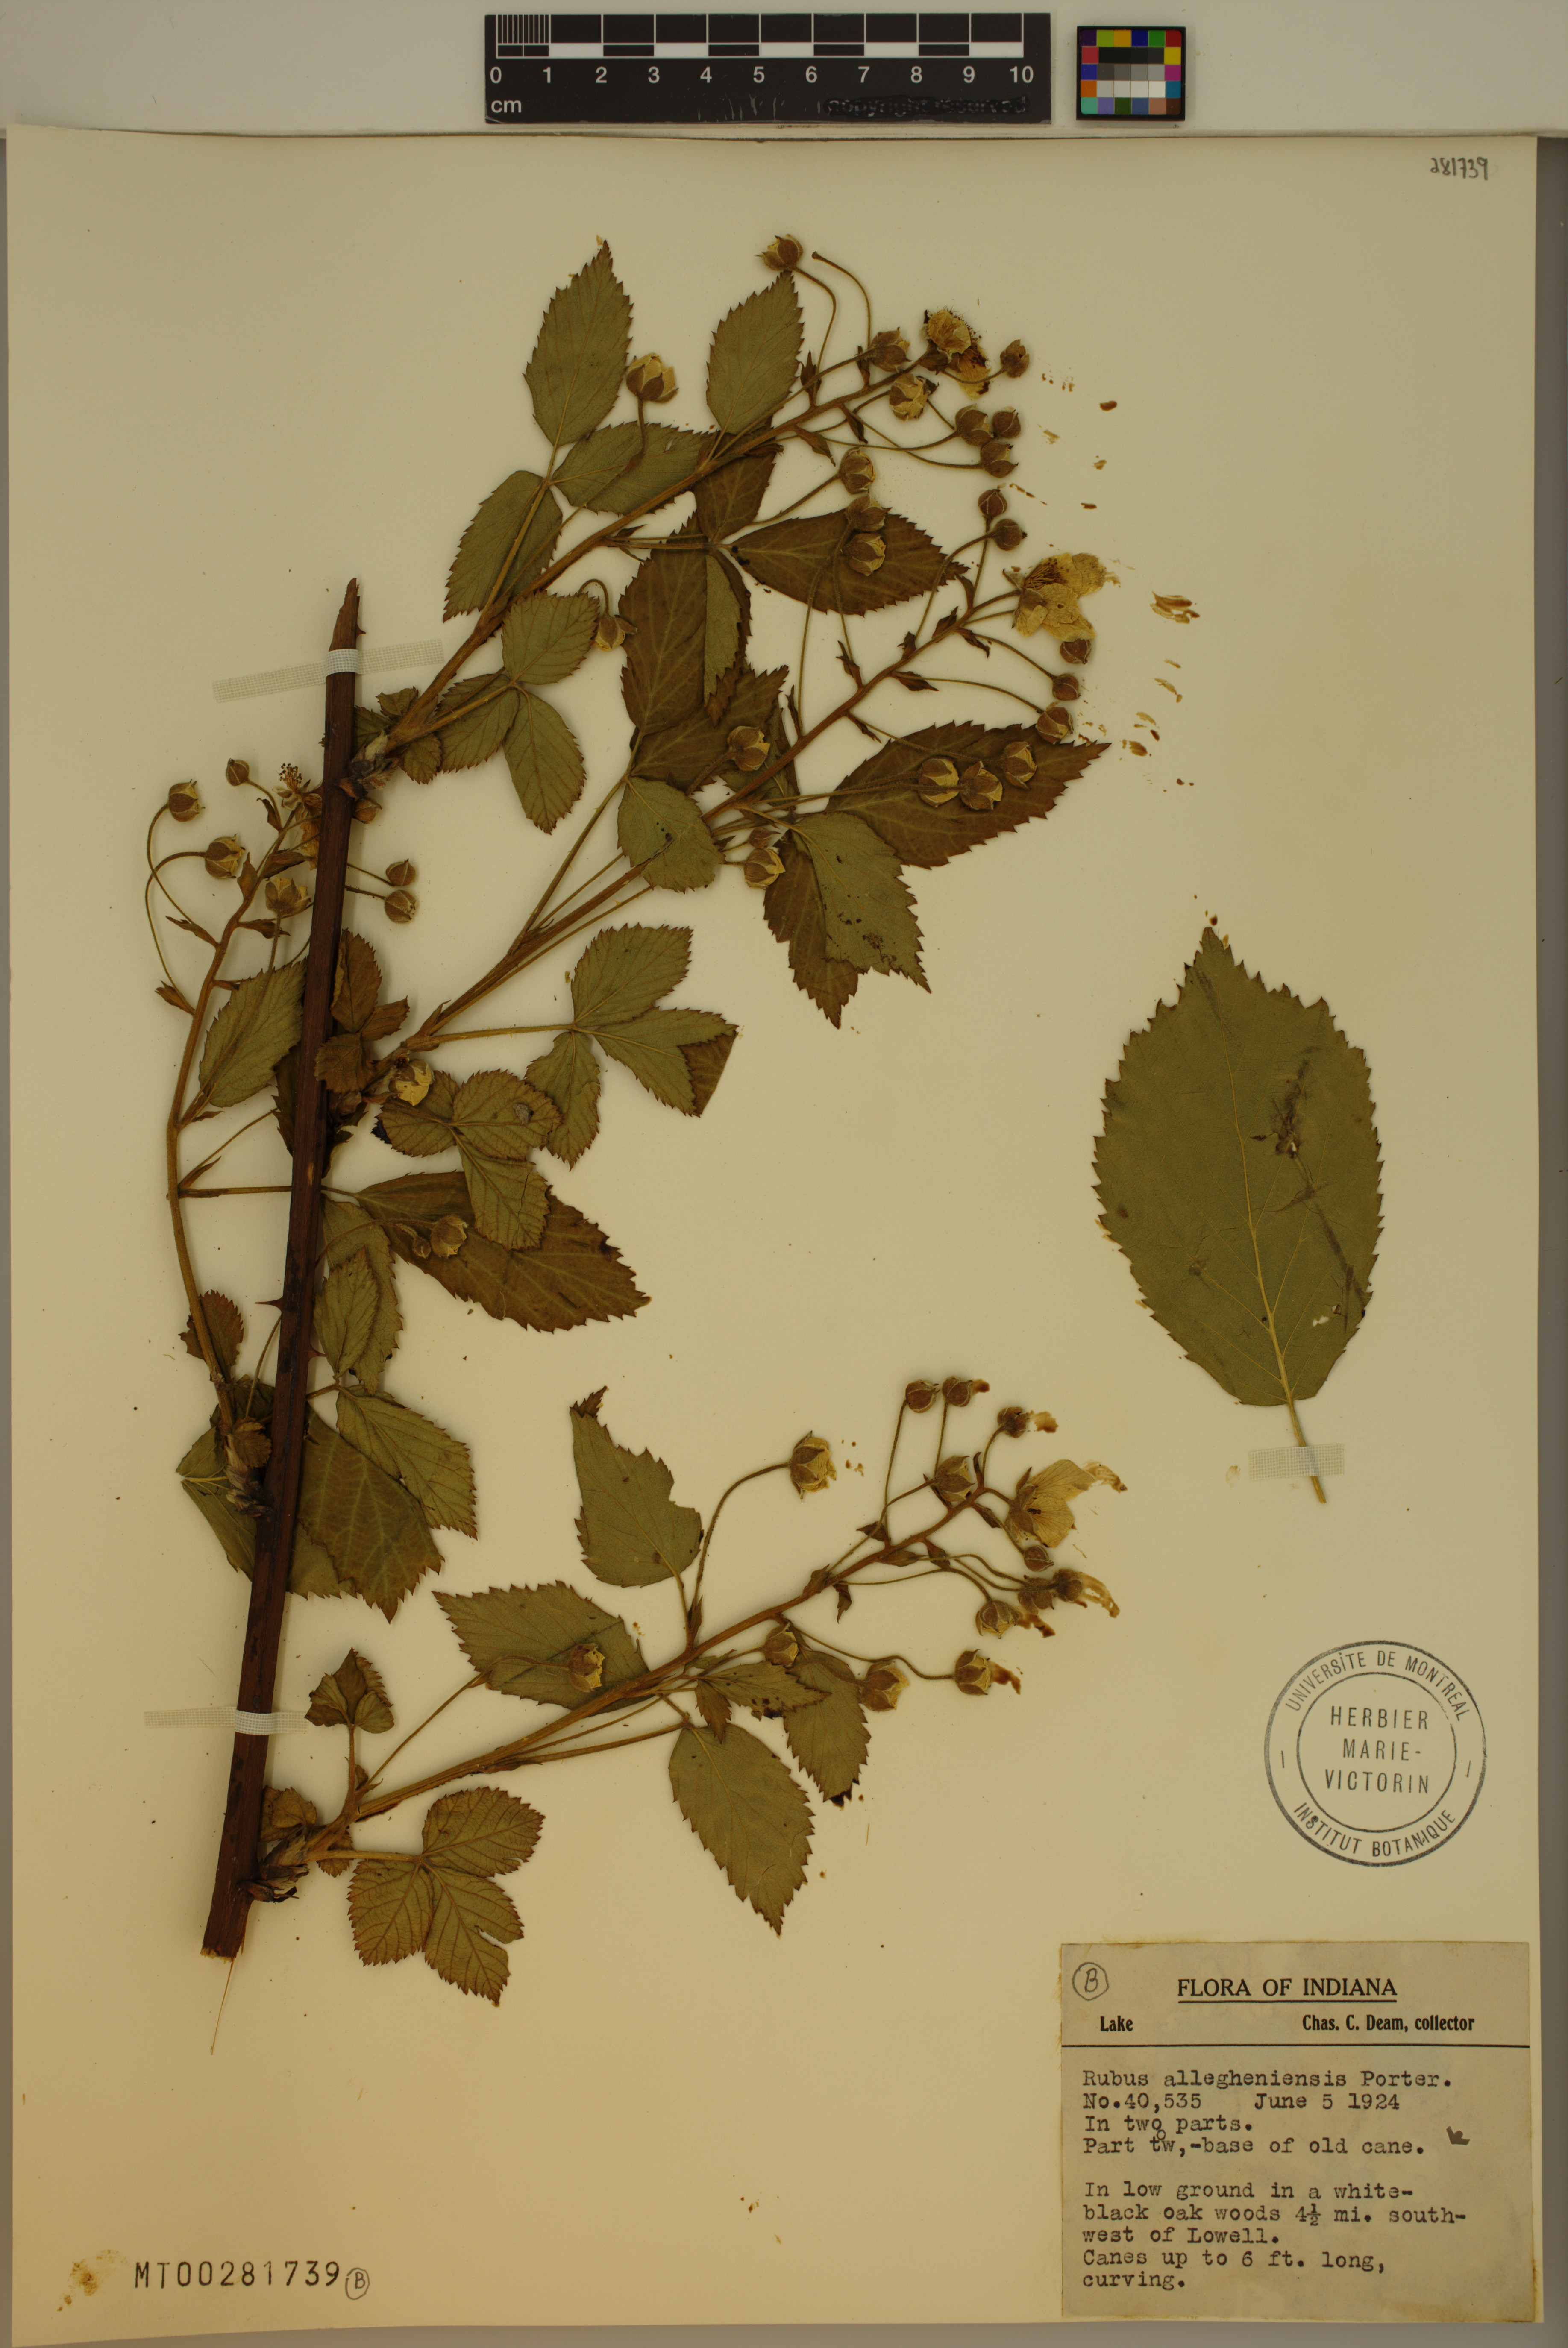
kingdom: Plantae
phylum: Tracheophyta
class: Magnoliopsida
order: Rosales
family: Rosaceae
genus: Rubus
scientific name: Rubus allegheniensis
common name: Allegheny blackberry
